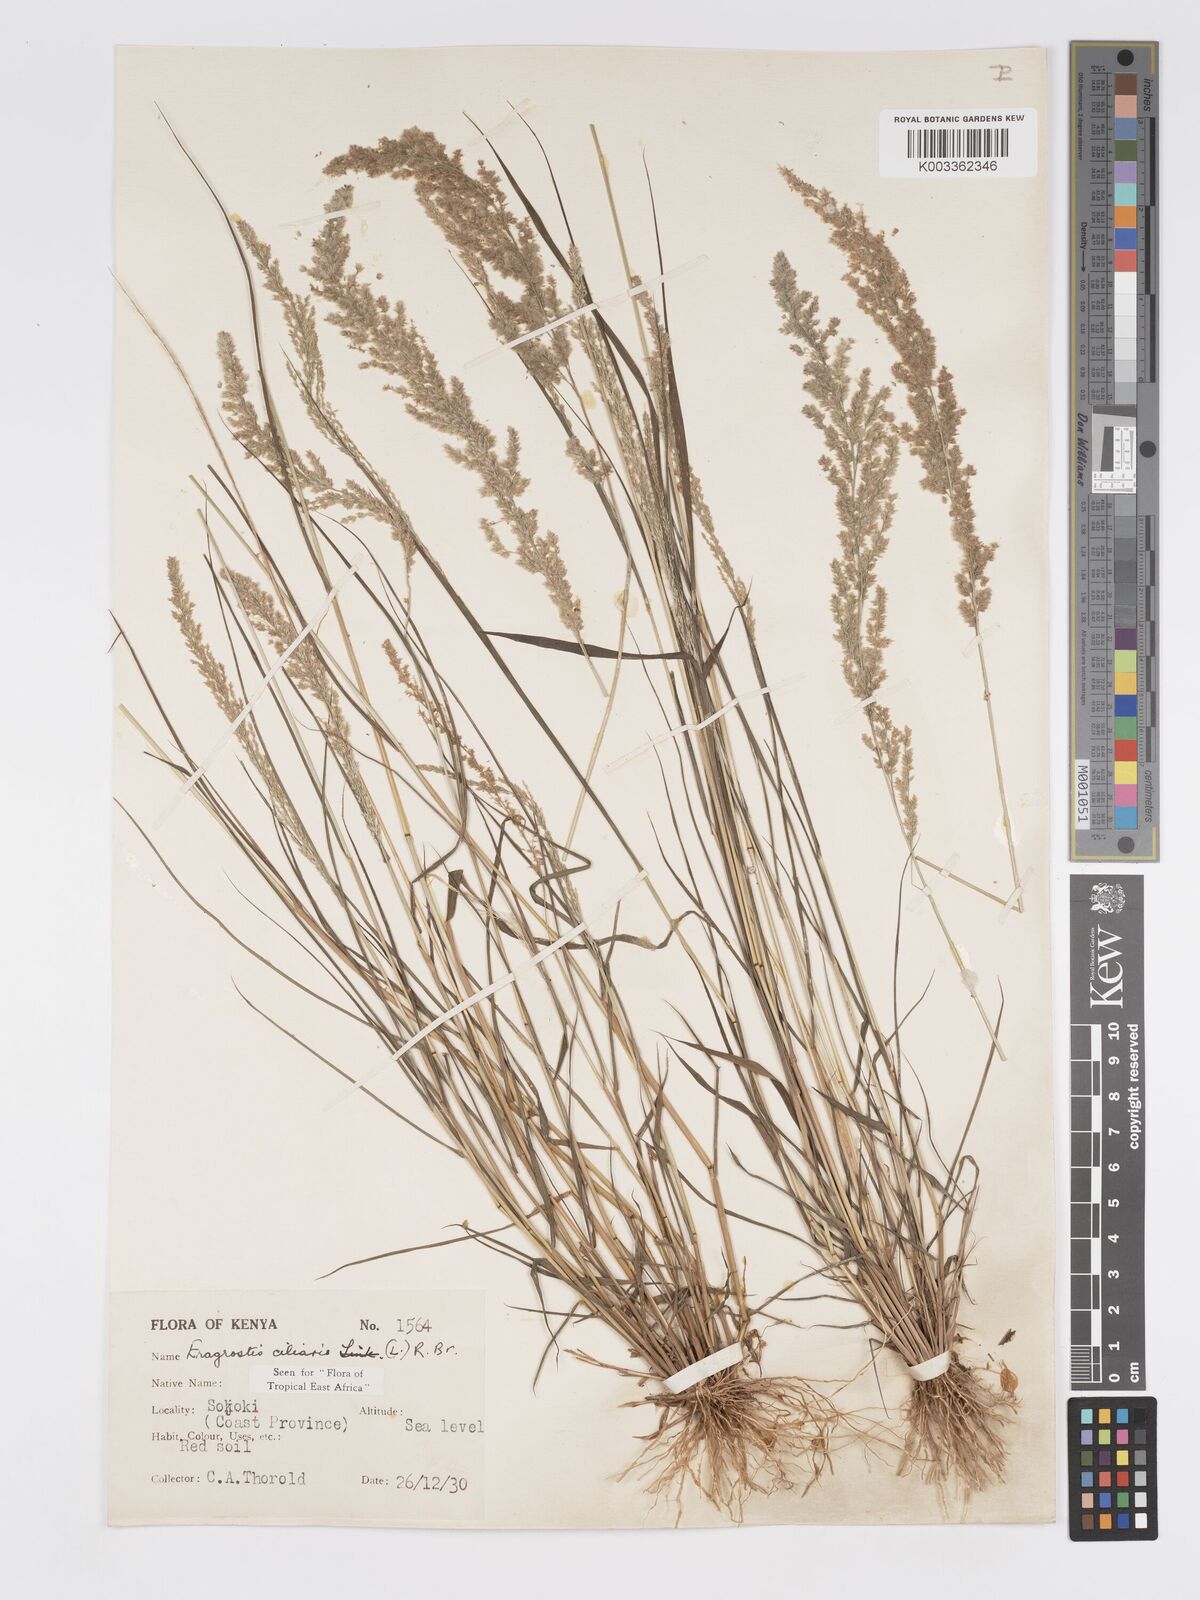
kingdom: Plantae
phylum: Tracheophyta
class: Liliopsida
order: Poales
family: Poaceae
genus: Eragrostis
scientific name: Eragrostis ciliaris
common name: Gophertail lovegrass
